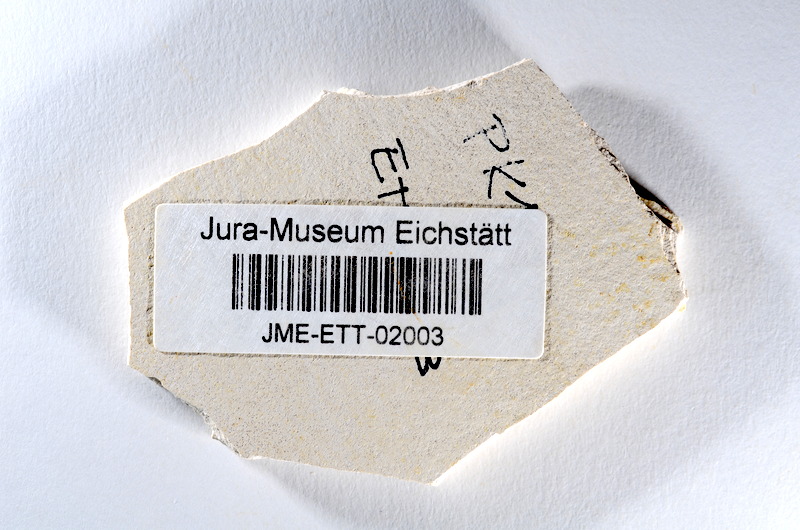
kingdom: Animalia
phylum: Chordata
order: Salmoniformes
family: Orthogonikleithridae
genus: Orthogonikleithrus
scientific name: Orthogonikleithrus hoelli
